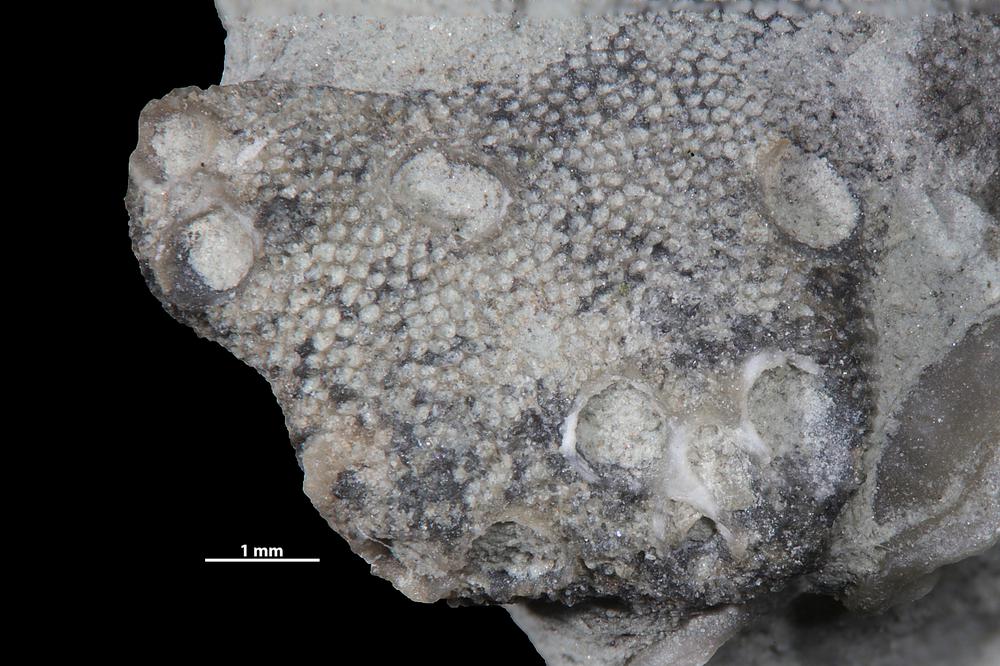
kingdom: Animalia
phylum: Bryozoa
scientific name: Bryozoa
